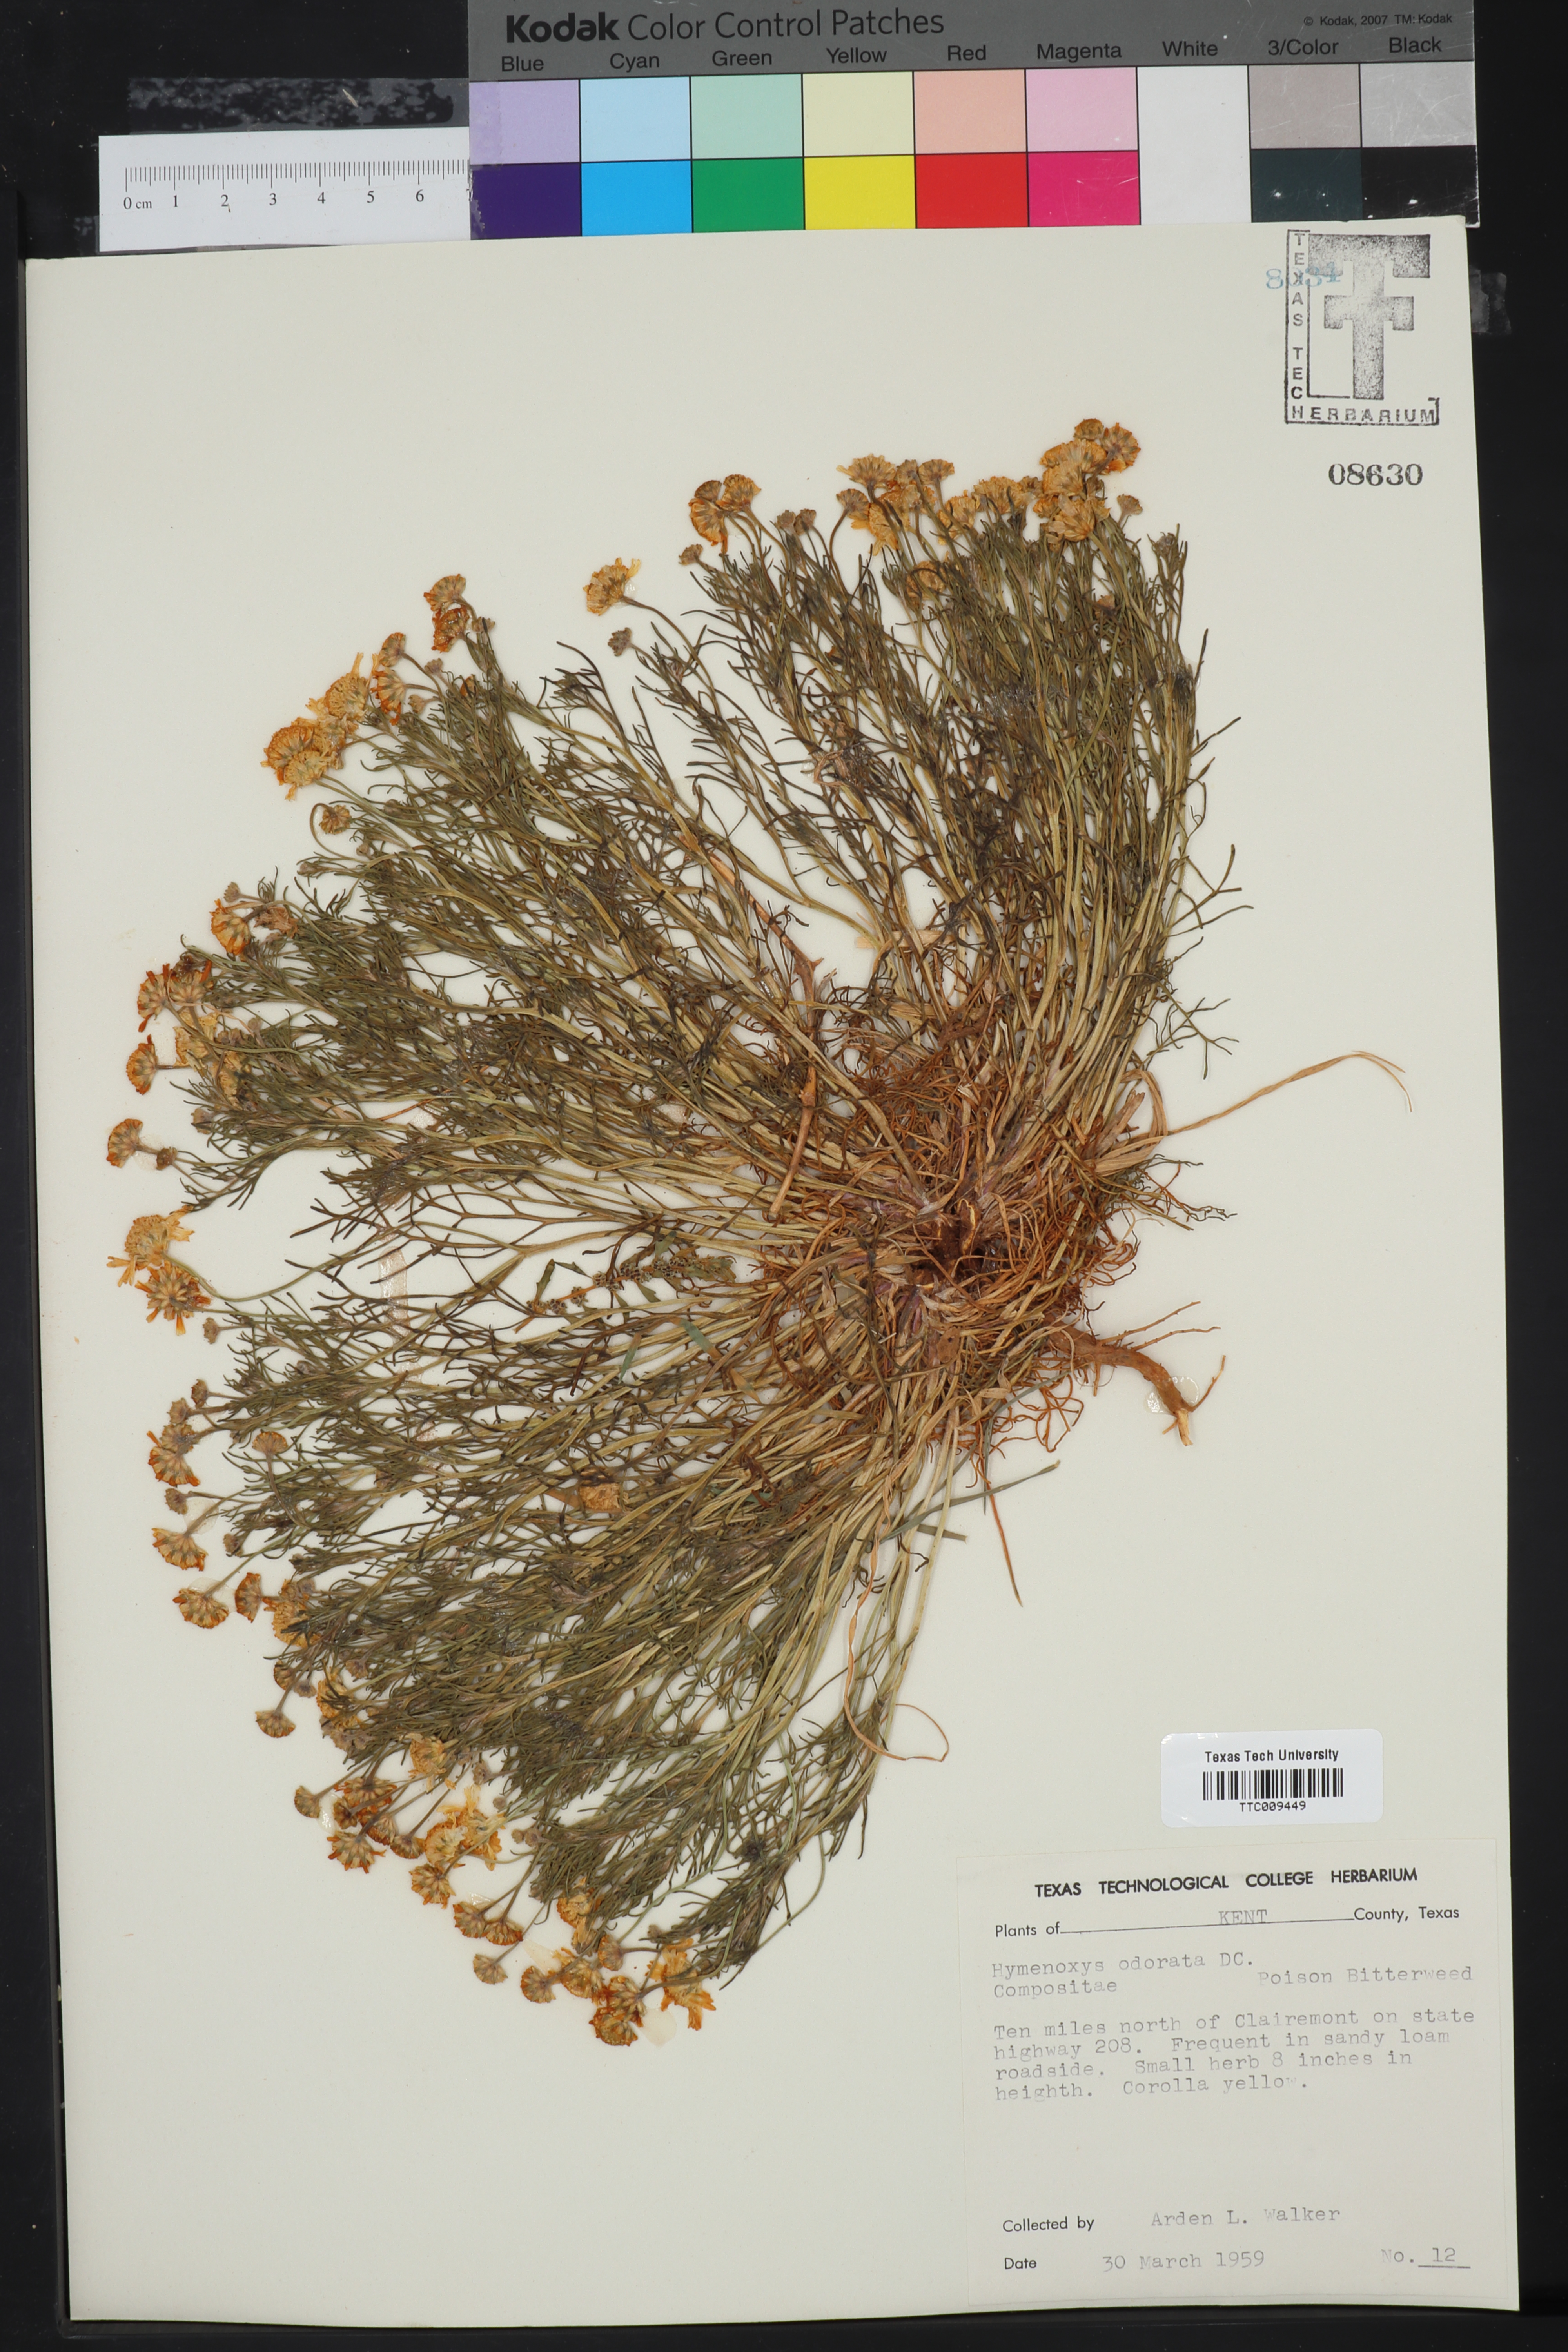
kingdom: Plantae
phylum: Tracheophyta
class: Magnoliopsida
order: Asterales
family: Asteraceae
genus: Hymenoxys
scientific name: Hymenoxys odorata
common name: Bitter rubberweed
